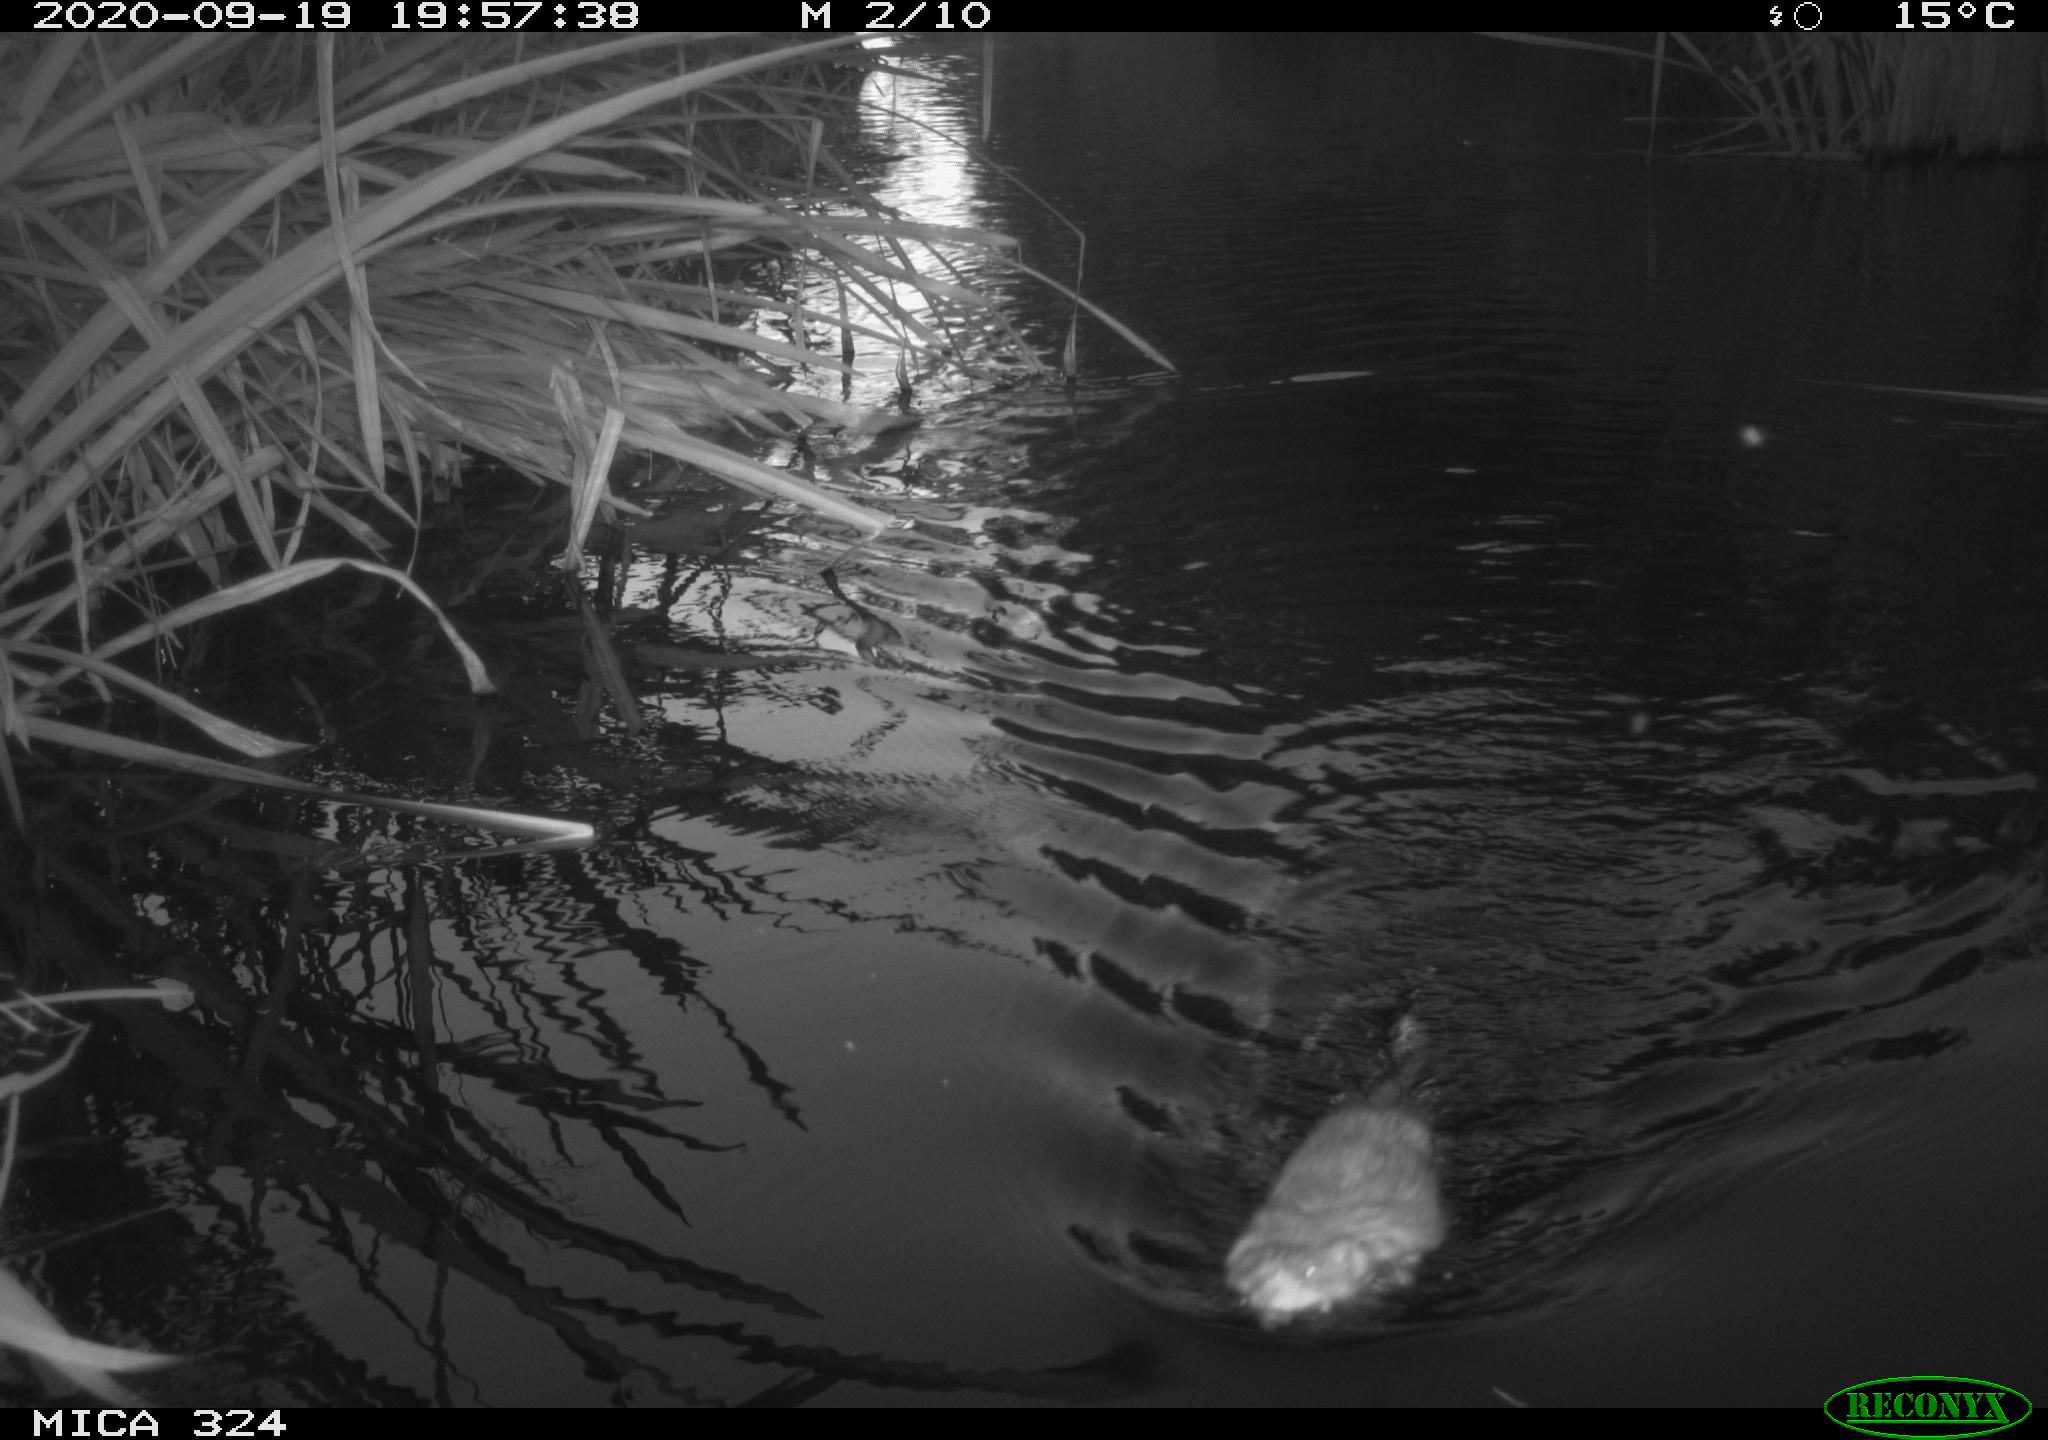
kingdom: Animalia
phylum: Chordata
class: Mammalia
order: Rodentia
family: Cricetidae
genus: Ondatra
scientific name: Ondatra zibethicus
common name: Muskrat
